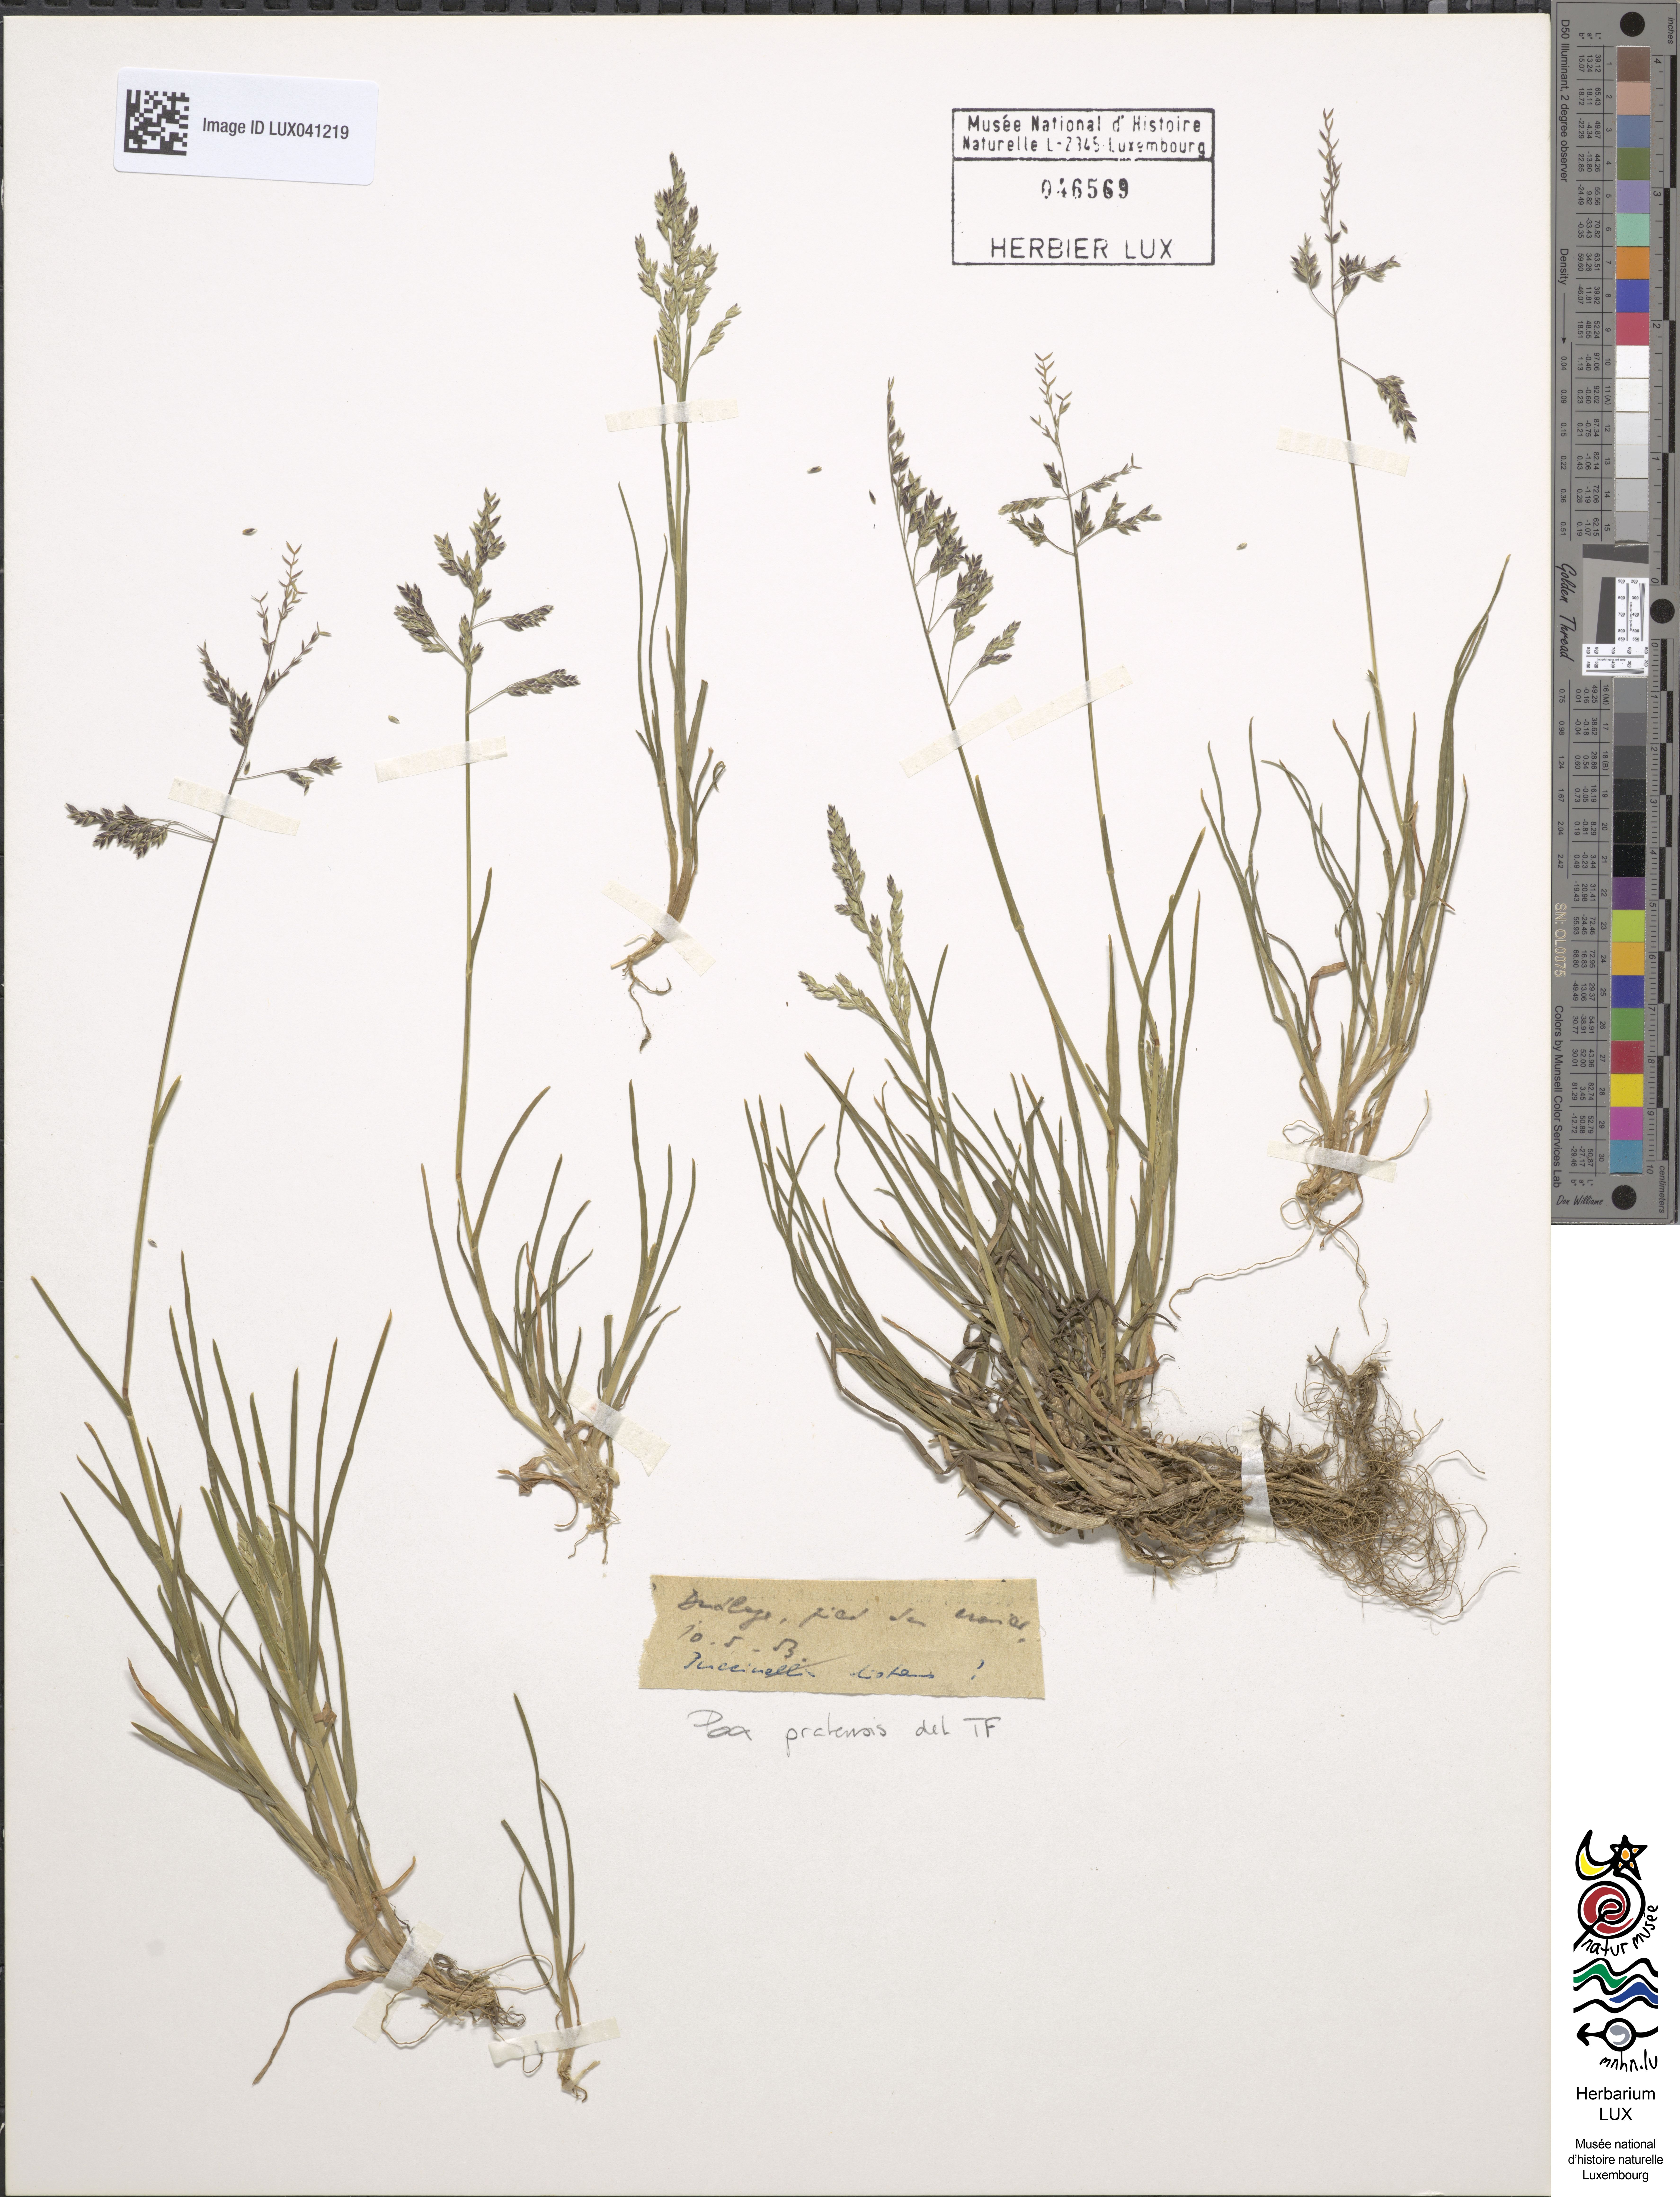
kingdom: Plantae
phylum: Tracheophyta
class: Liliopsida
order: Poales
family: Poaceae
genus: Poa
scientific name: Poa pratensis
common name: Kentucky bluegrass
